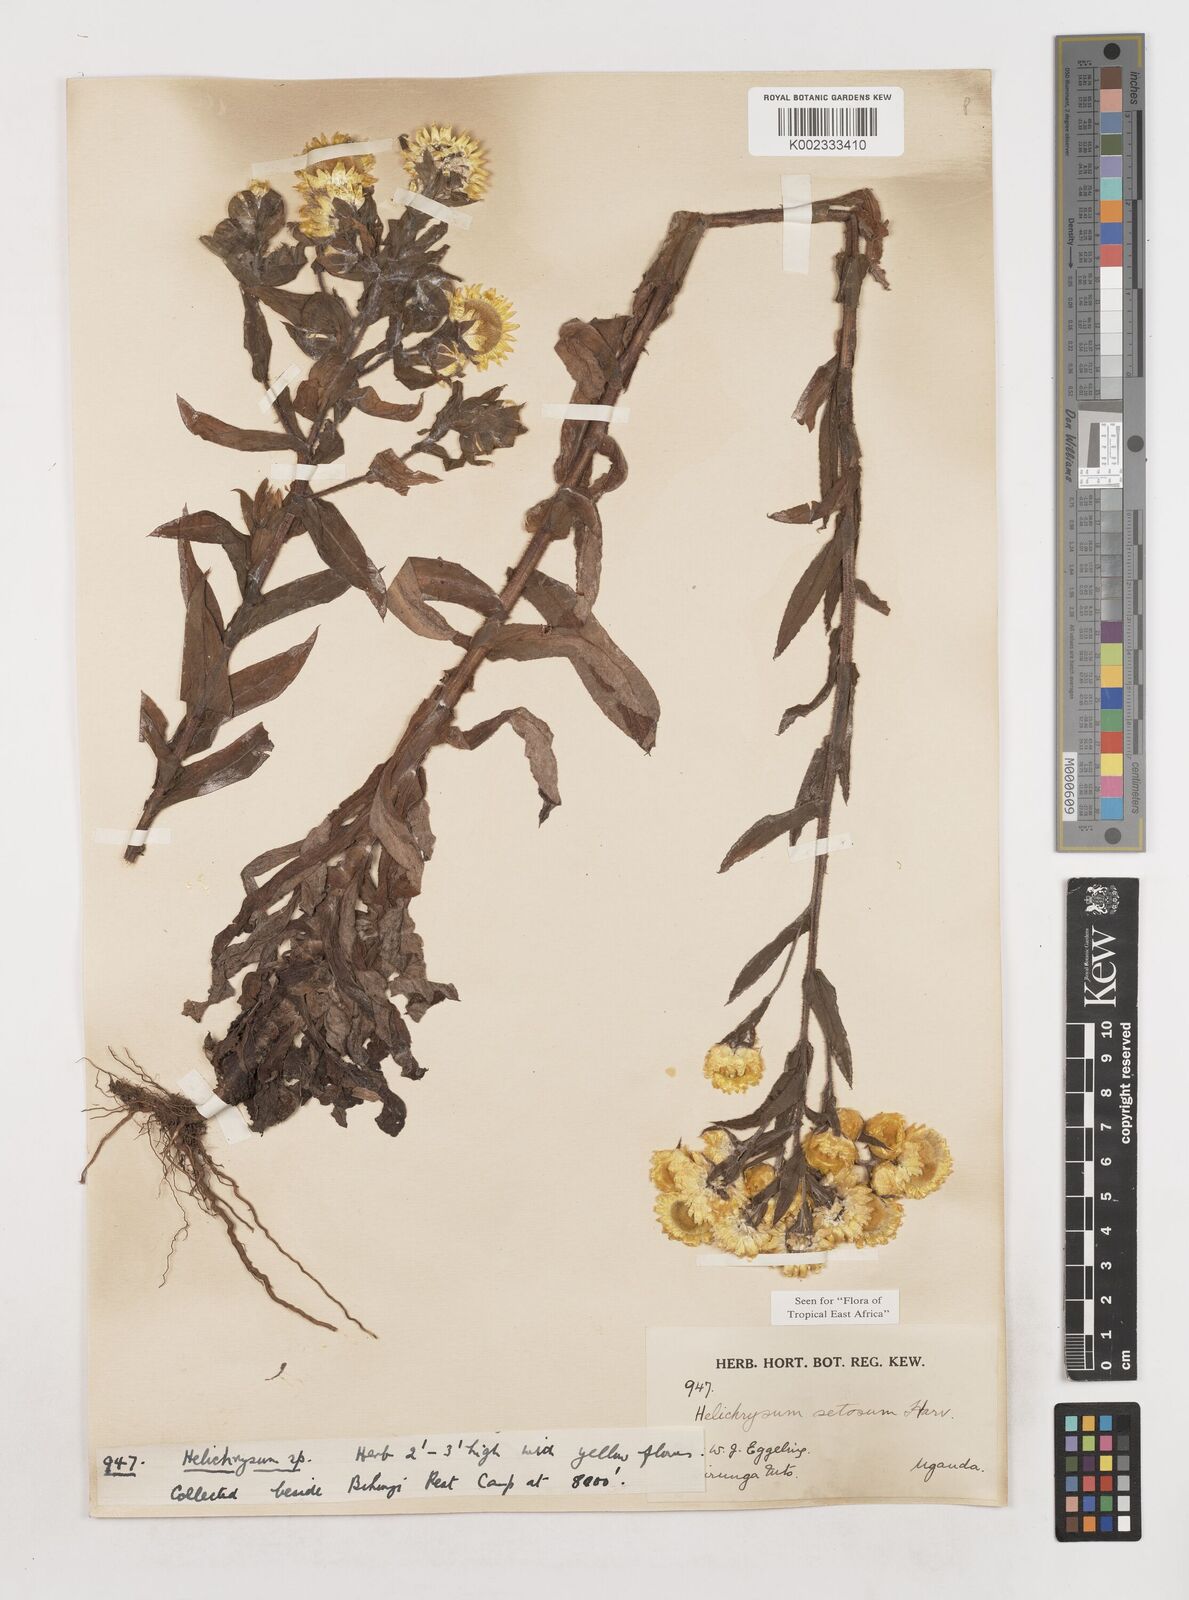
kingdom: Plantae
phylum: Tracheophyta
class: Magnoliopsida
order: Asterales
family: Asteraceae
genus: Helichrysum
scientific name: Helichrysum setosum
